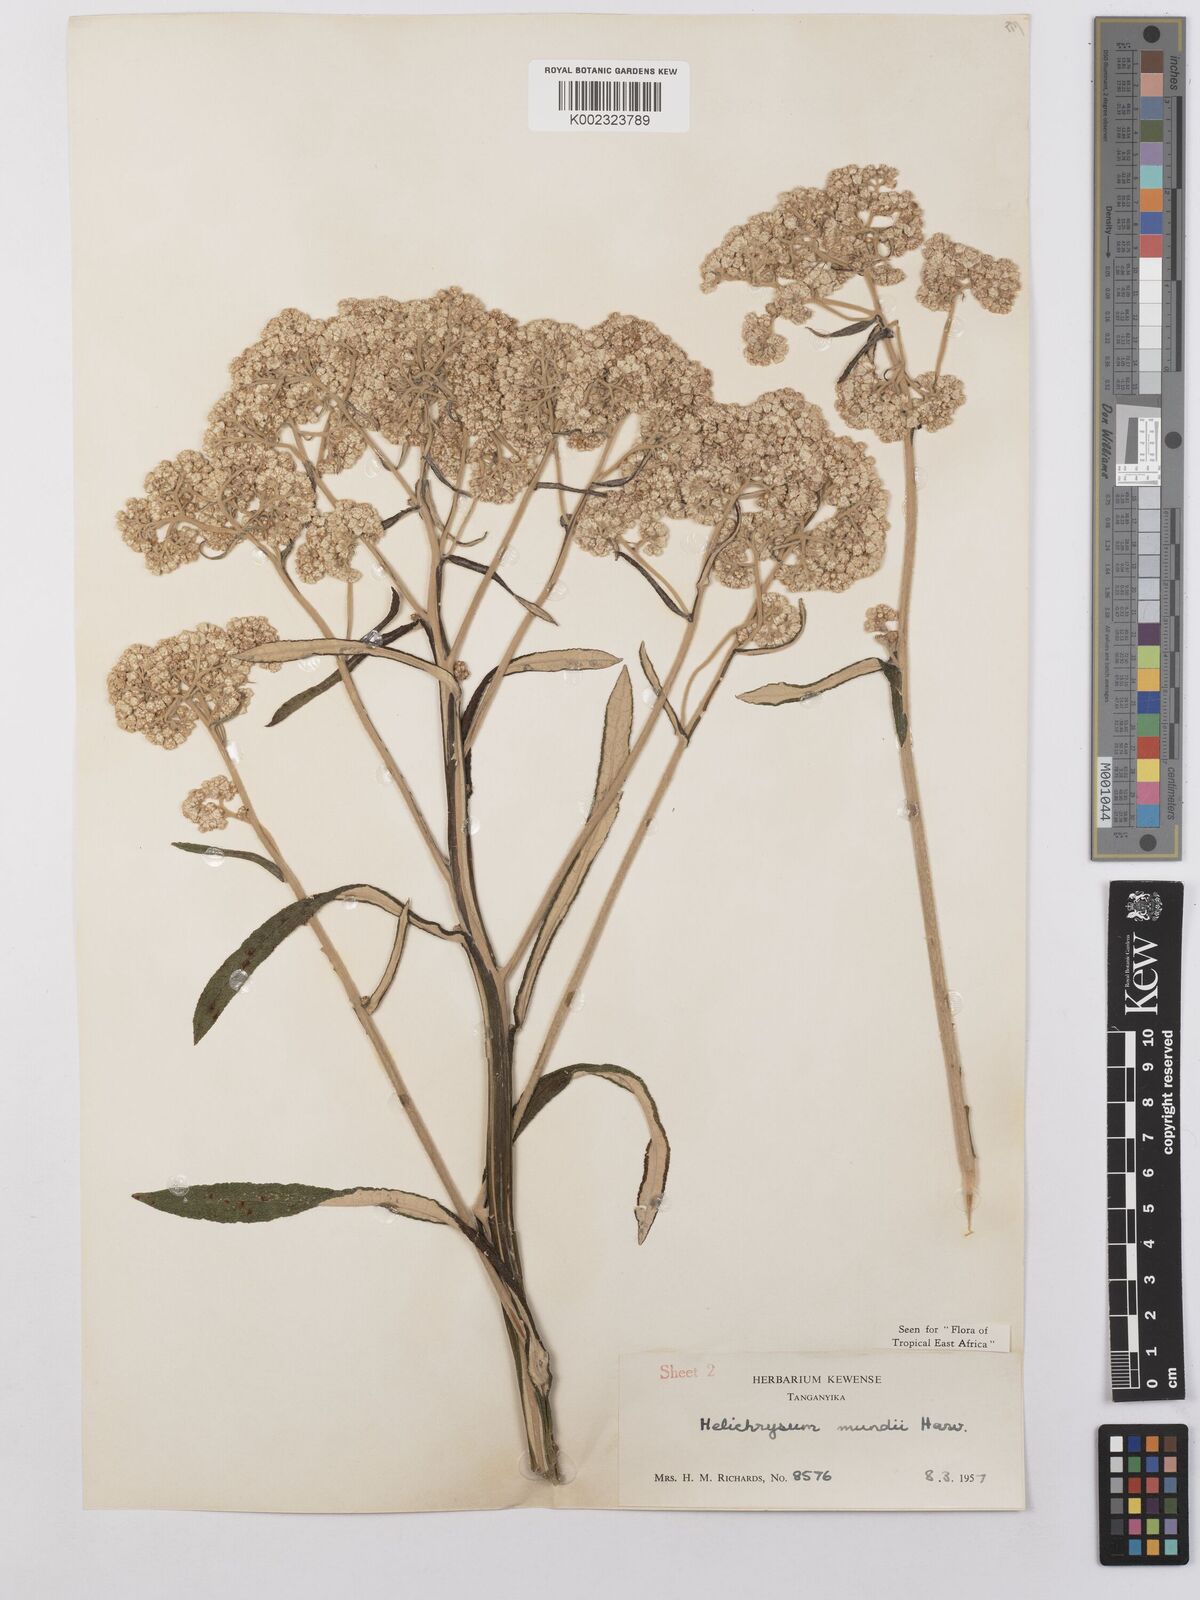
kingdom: Plantae
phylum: Tracheophyta
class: Magnoliopsida
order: Asterales
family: Asteraceae
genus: Helichrysum
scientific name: Helichrysum mundii
